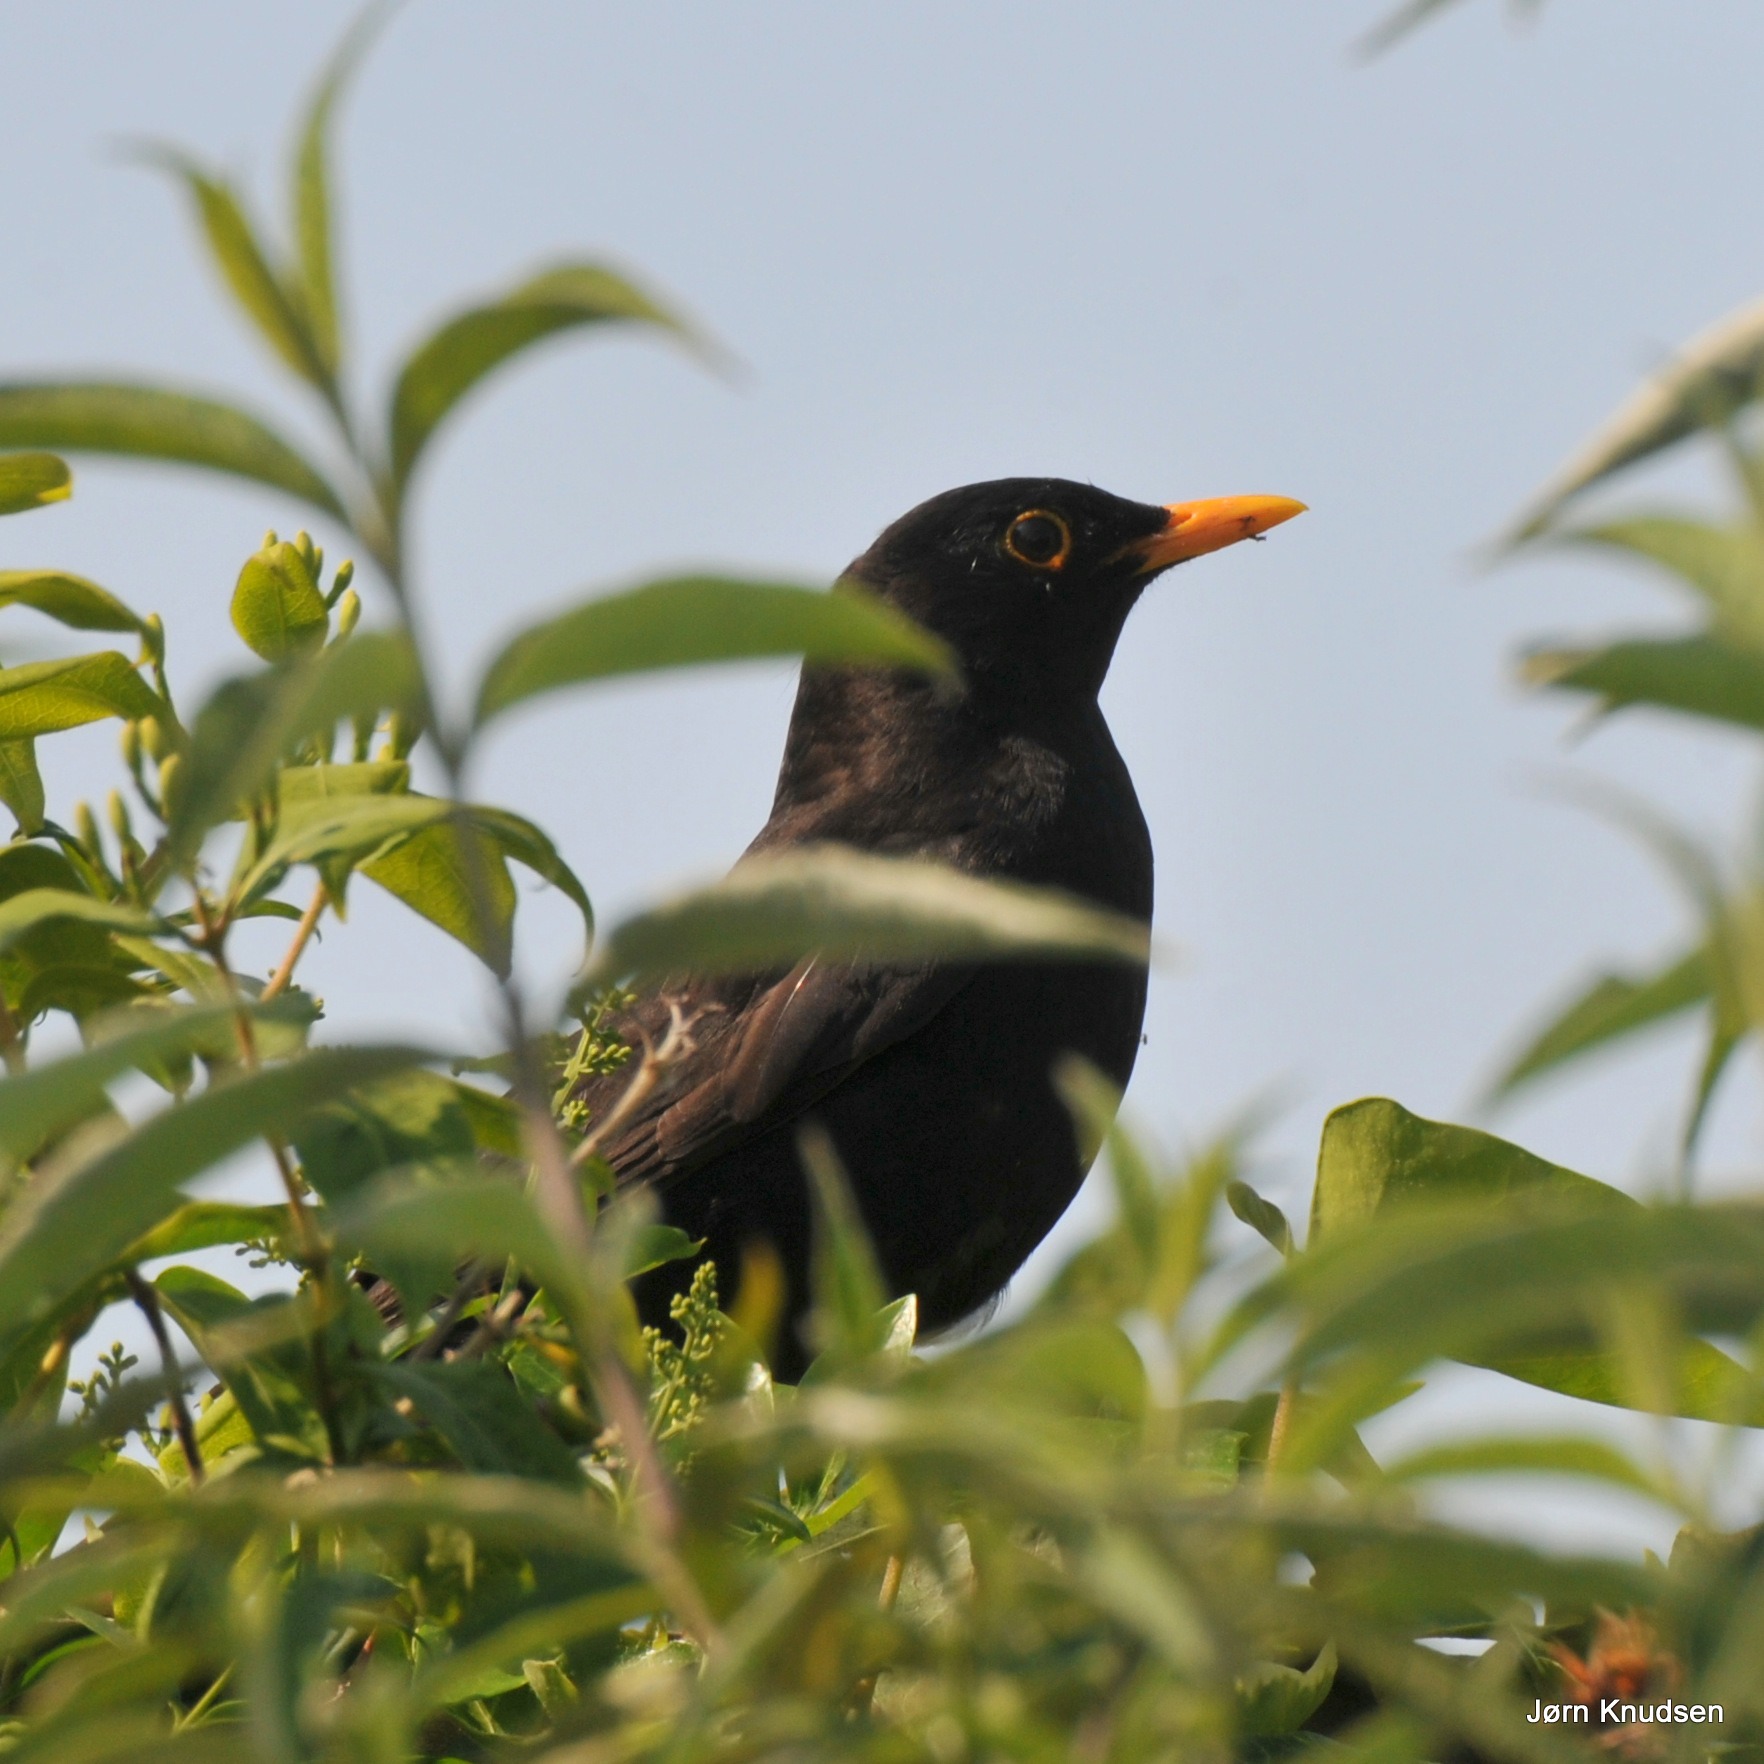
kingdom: Animalia
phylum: Chordata
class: Aves
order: Passeriformes
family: Turdidae
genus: Turdus
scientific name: Turdus merula
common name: Solsort
